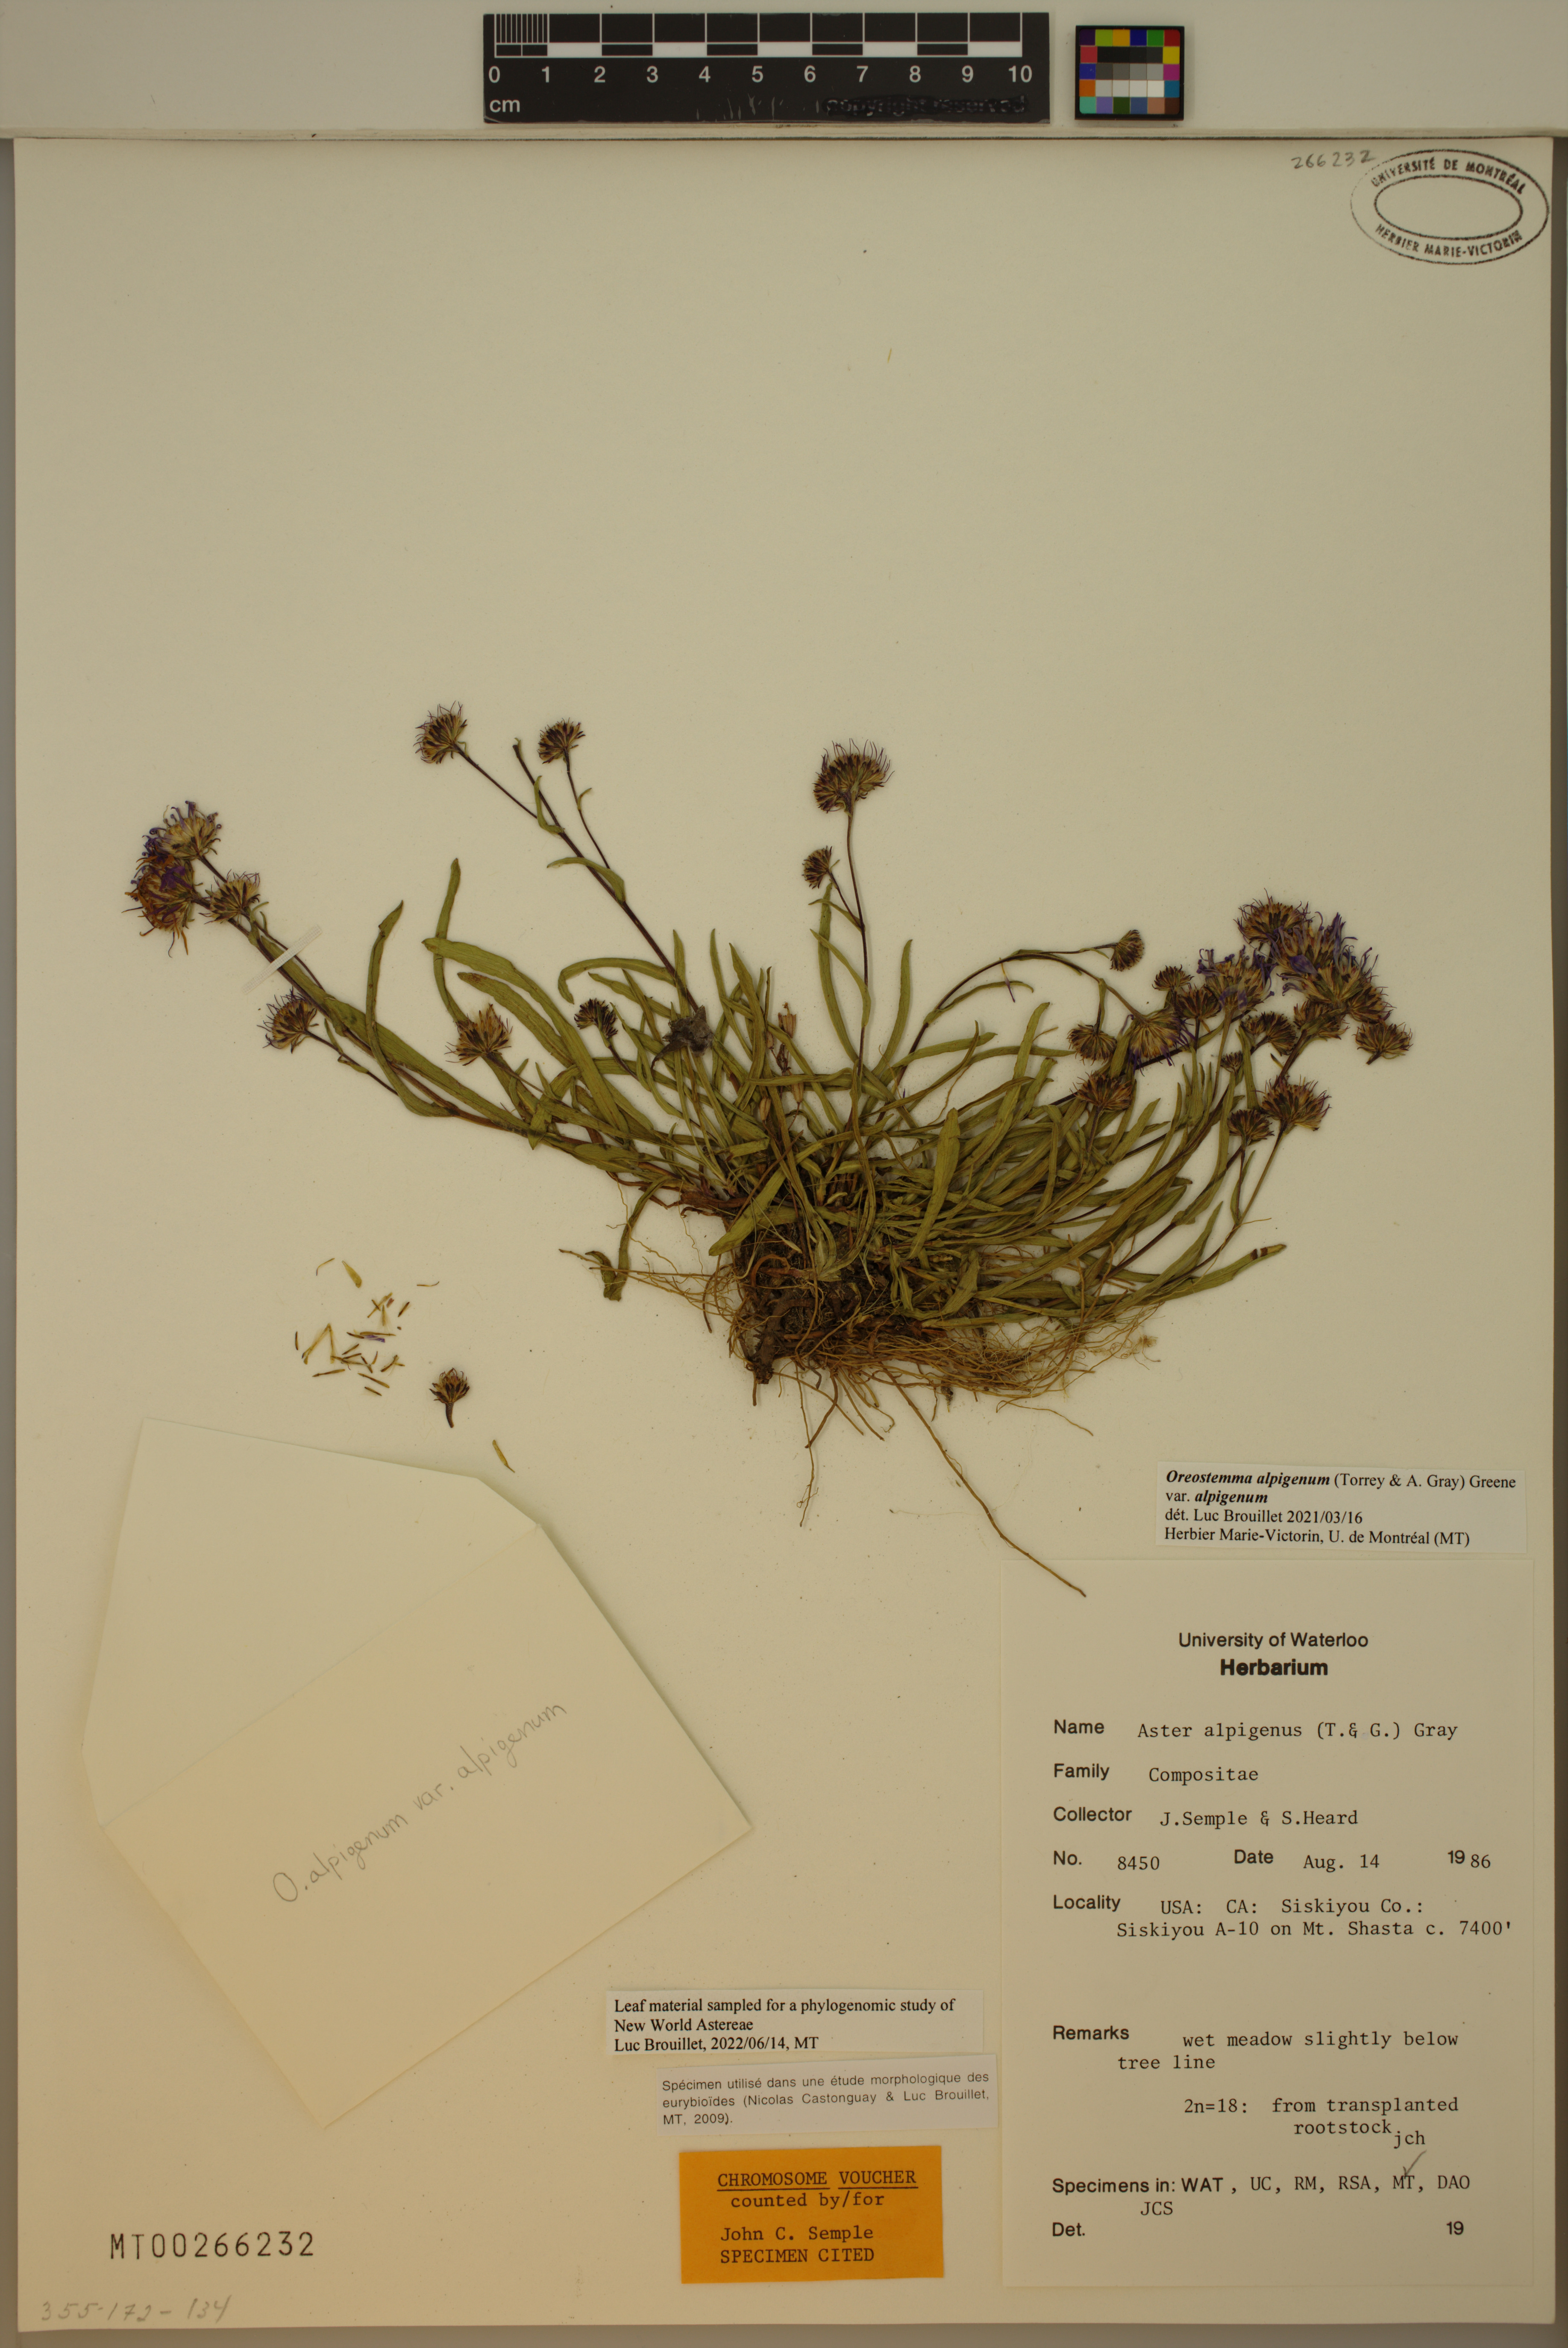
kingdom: Plantae
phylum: Tracheophyta
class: Magnoliopsida
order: Asterales
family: Asteraceae
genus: Oreostemma
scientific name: Oreostemma alpigenum
